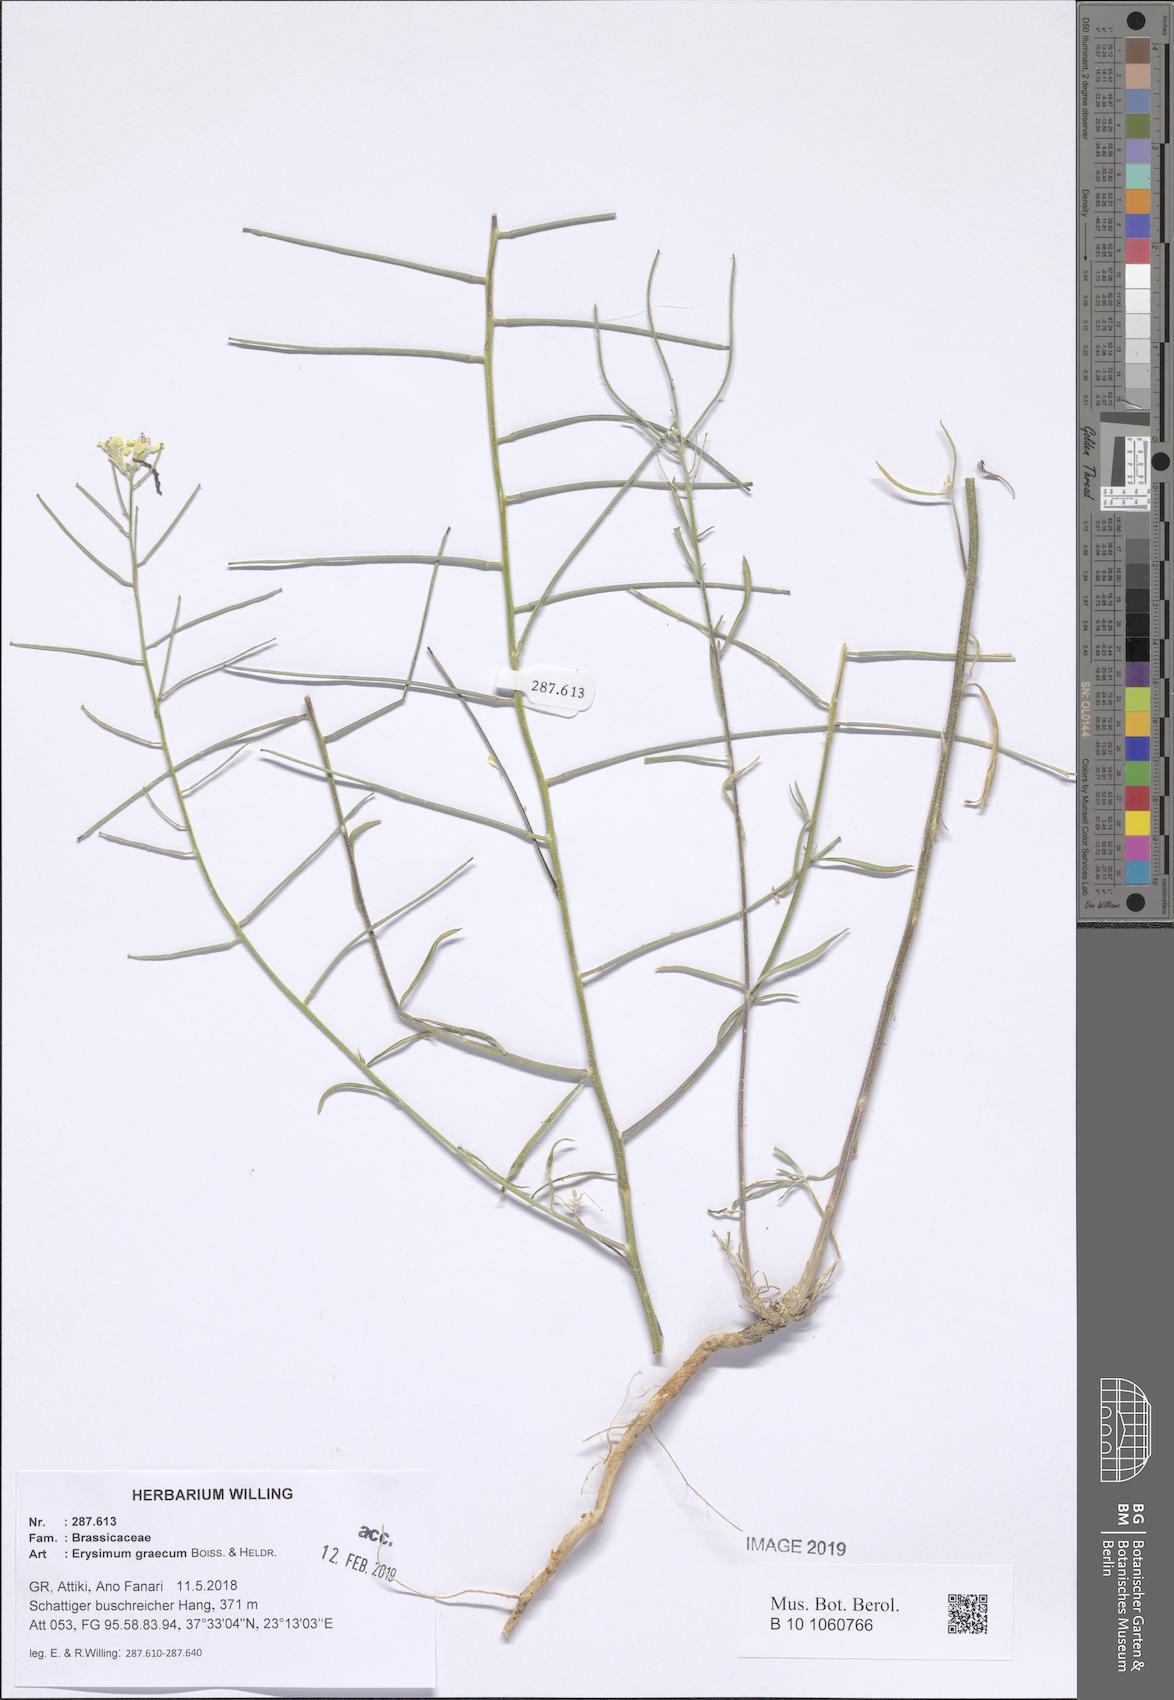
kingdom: Plantae
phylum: Tracheophyta
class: Magnoliopsida
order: Brassicales
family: Brassicaceae
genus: Erysimum
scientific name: Erysimum graecum
